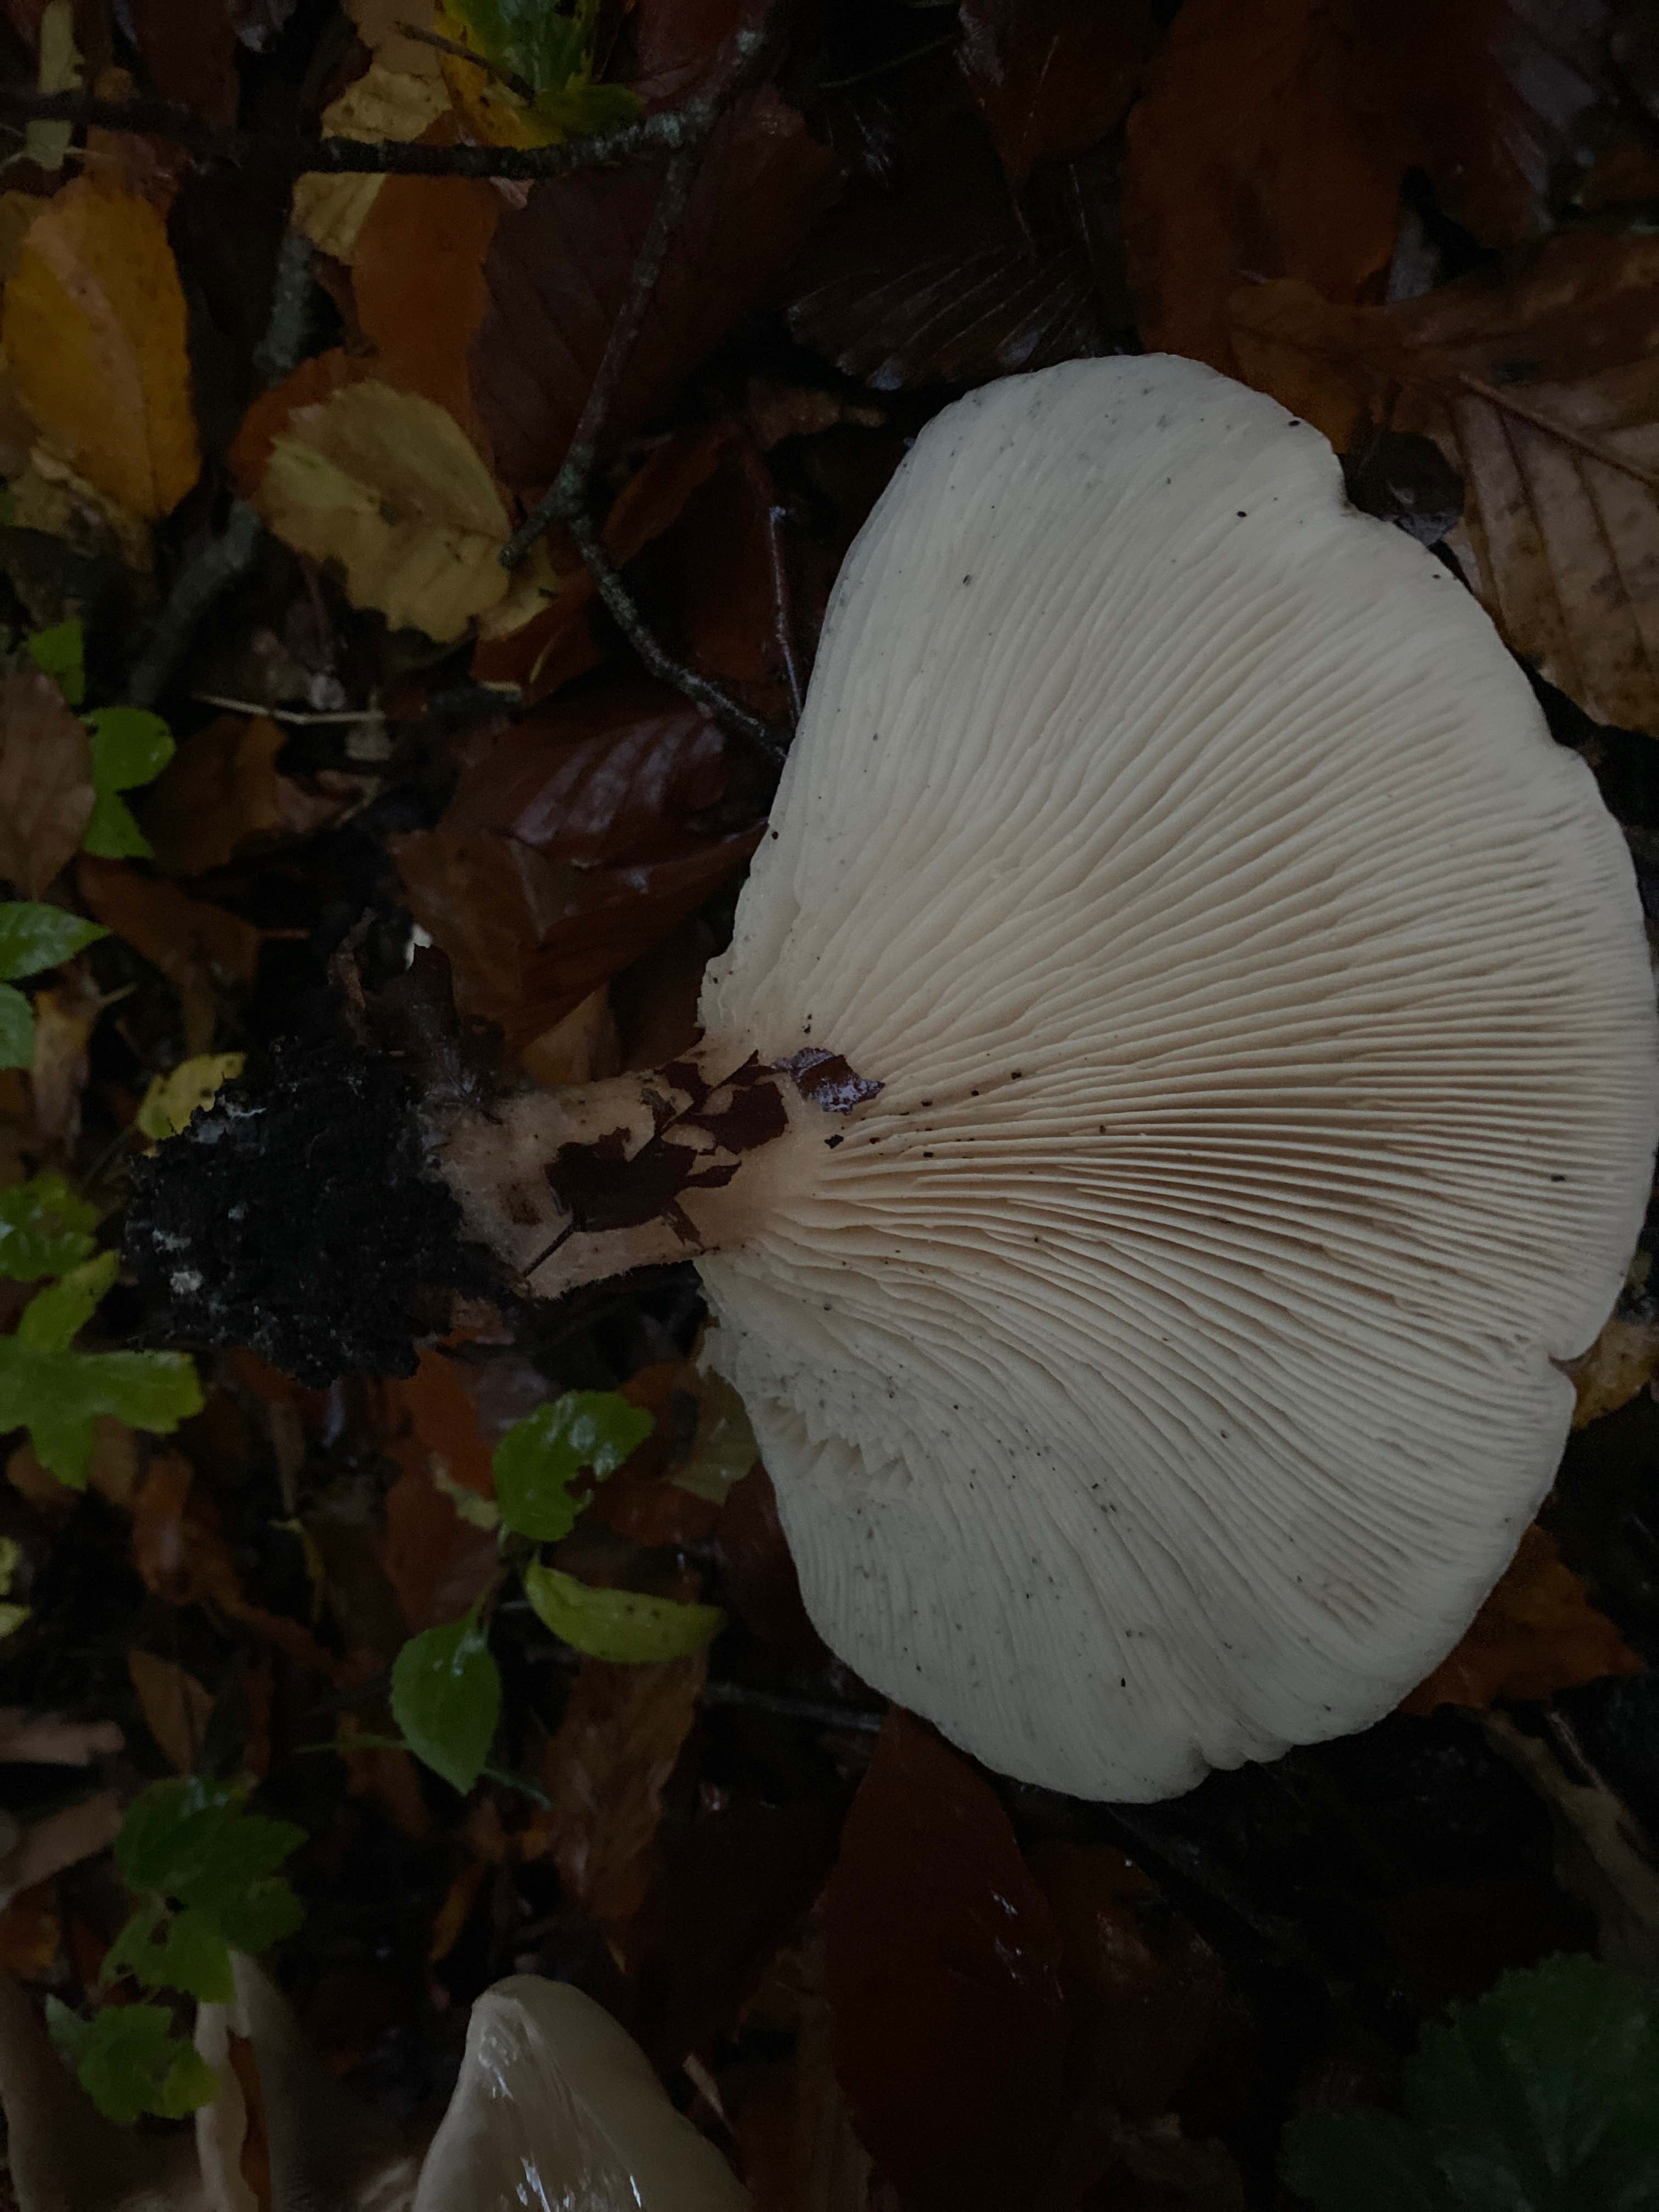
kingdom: Fungi
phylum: Basidiomycota
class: Agaricomycetes
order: Agaricales
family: Tricholomataceae
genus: Infundibulicybe
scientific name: Infundibulicybe geotropa
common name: stor tragthat
